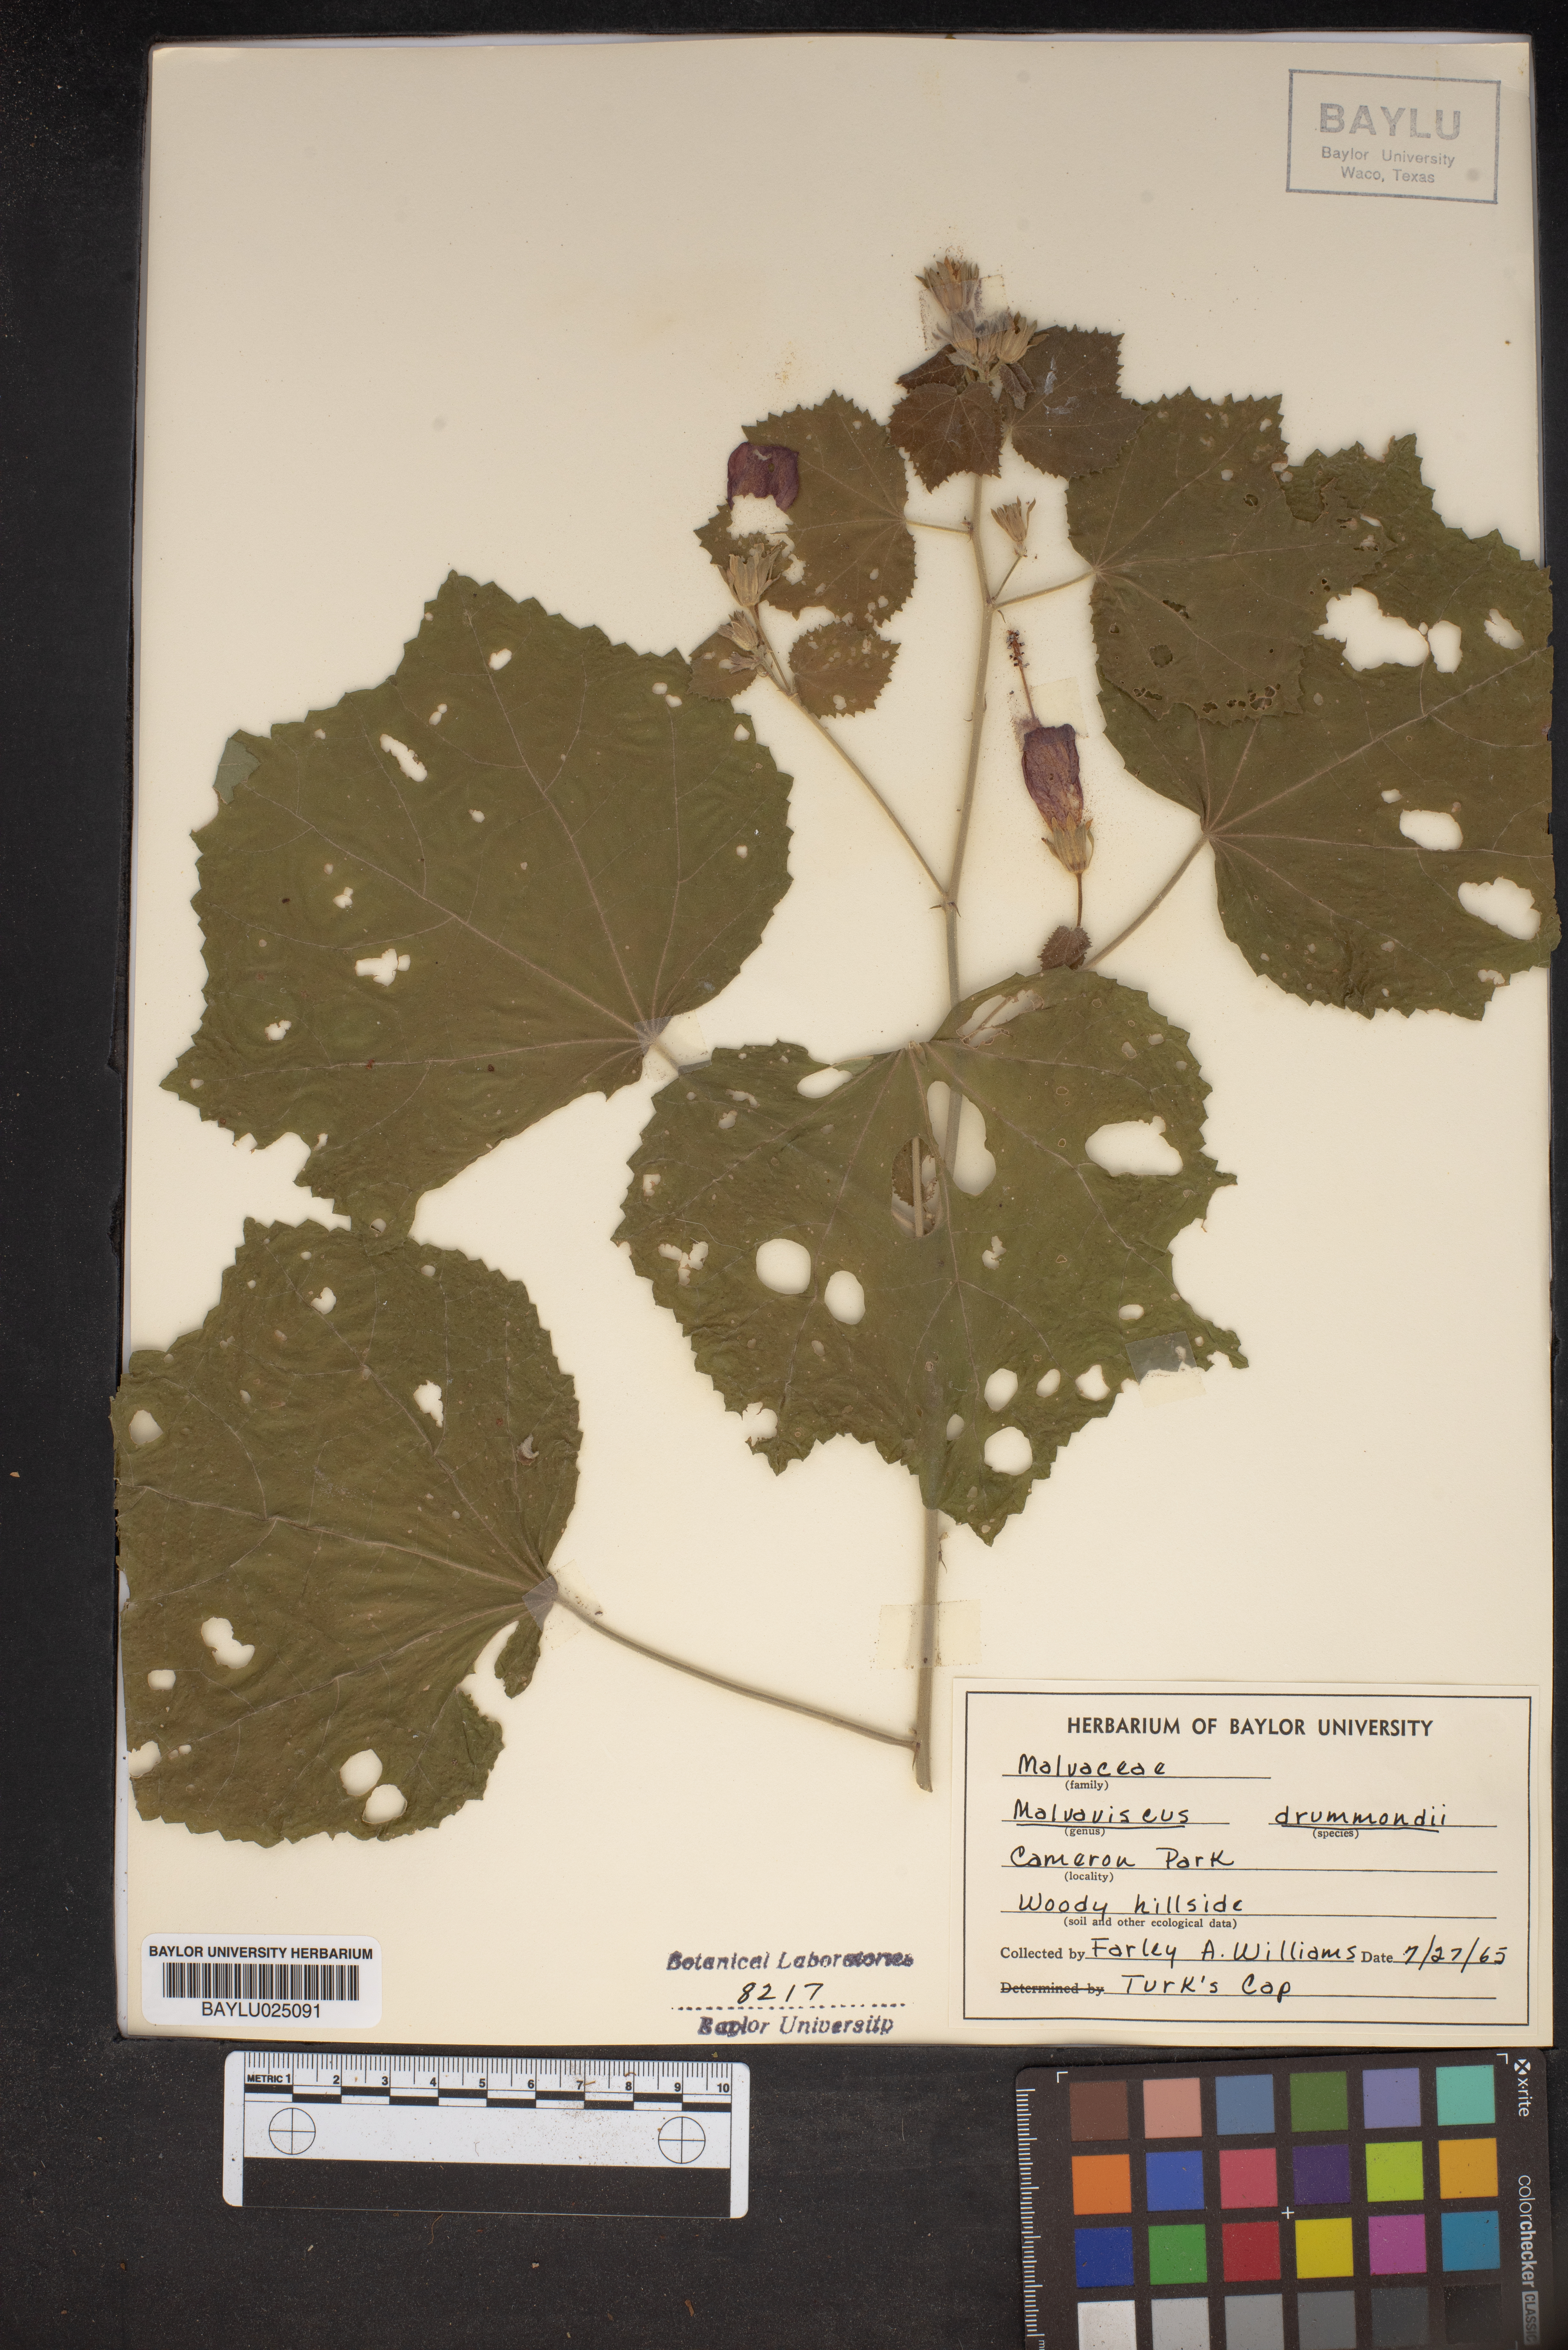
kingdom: Plantae
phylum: Tracheophyta
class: Magnoliopsida
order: Malvales
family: Malvaceae
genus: Malvaviscus
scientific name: Malvaviscus arboreus
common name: Wax mallow
